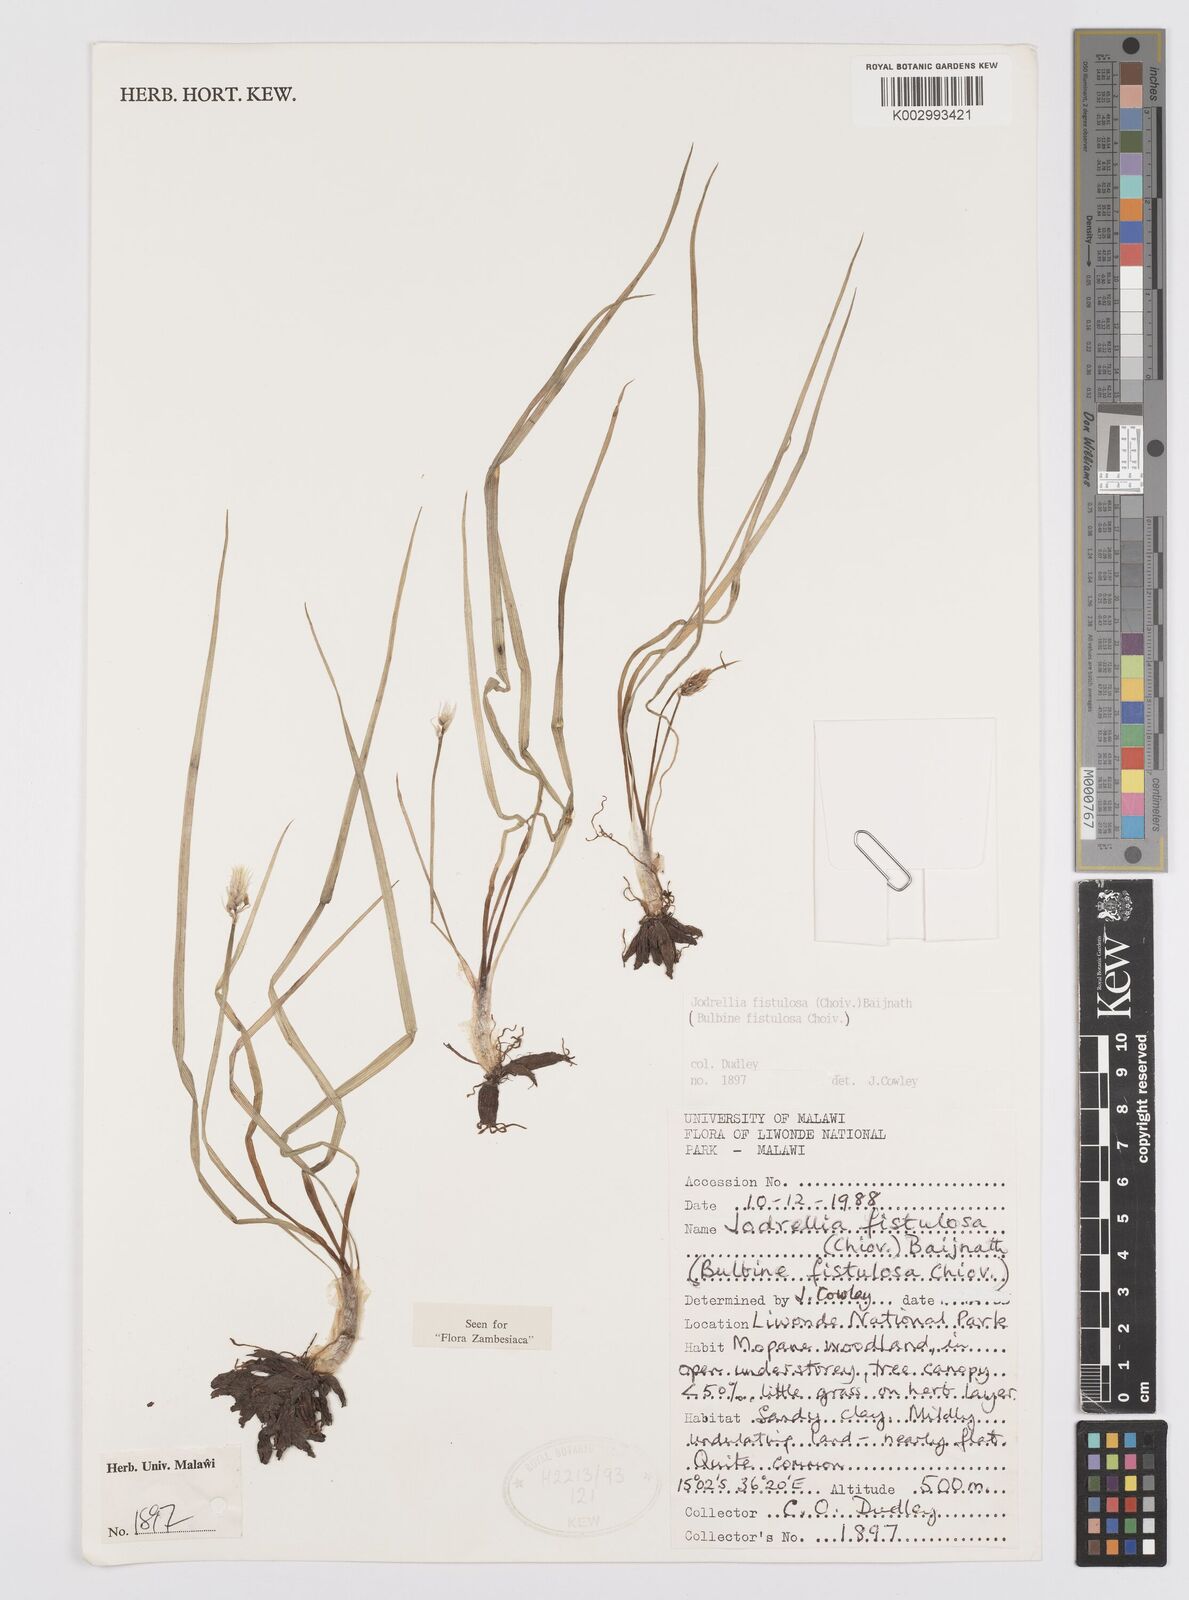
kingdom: Plantae
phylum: Tracheophyta
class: Liliopsida
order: Asparagales
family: Asphodelaceae
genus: Bulbine
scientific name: Bulbine fistulosa
